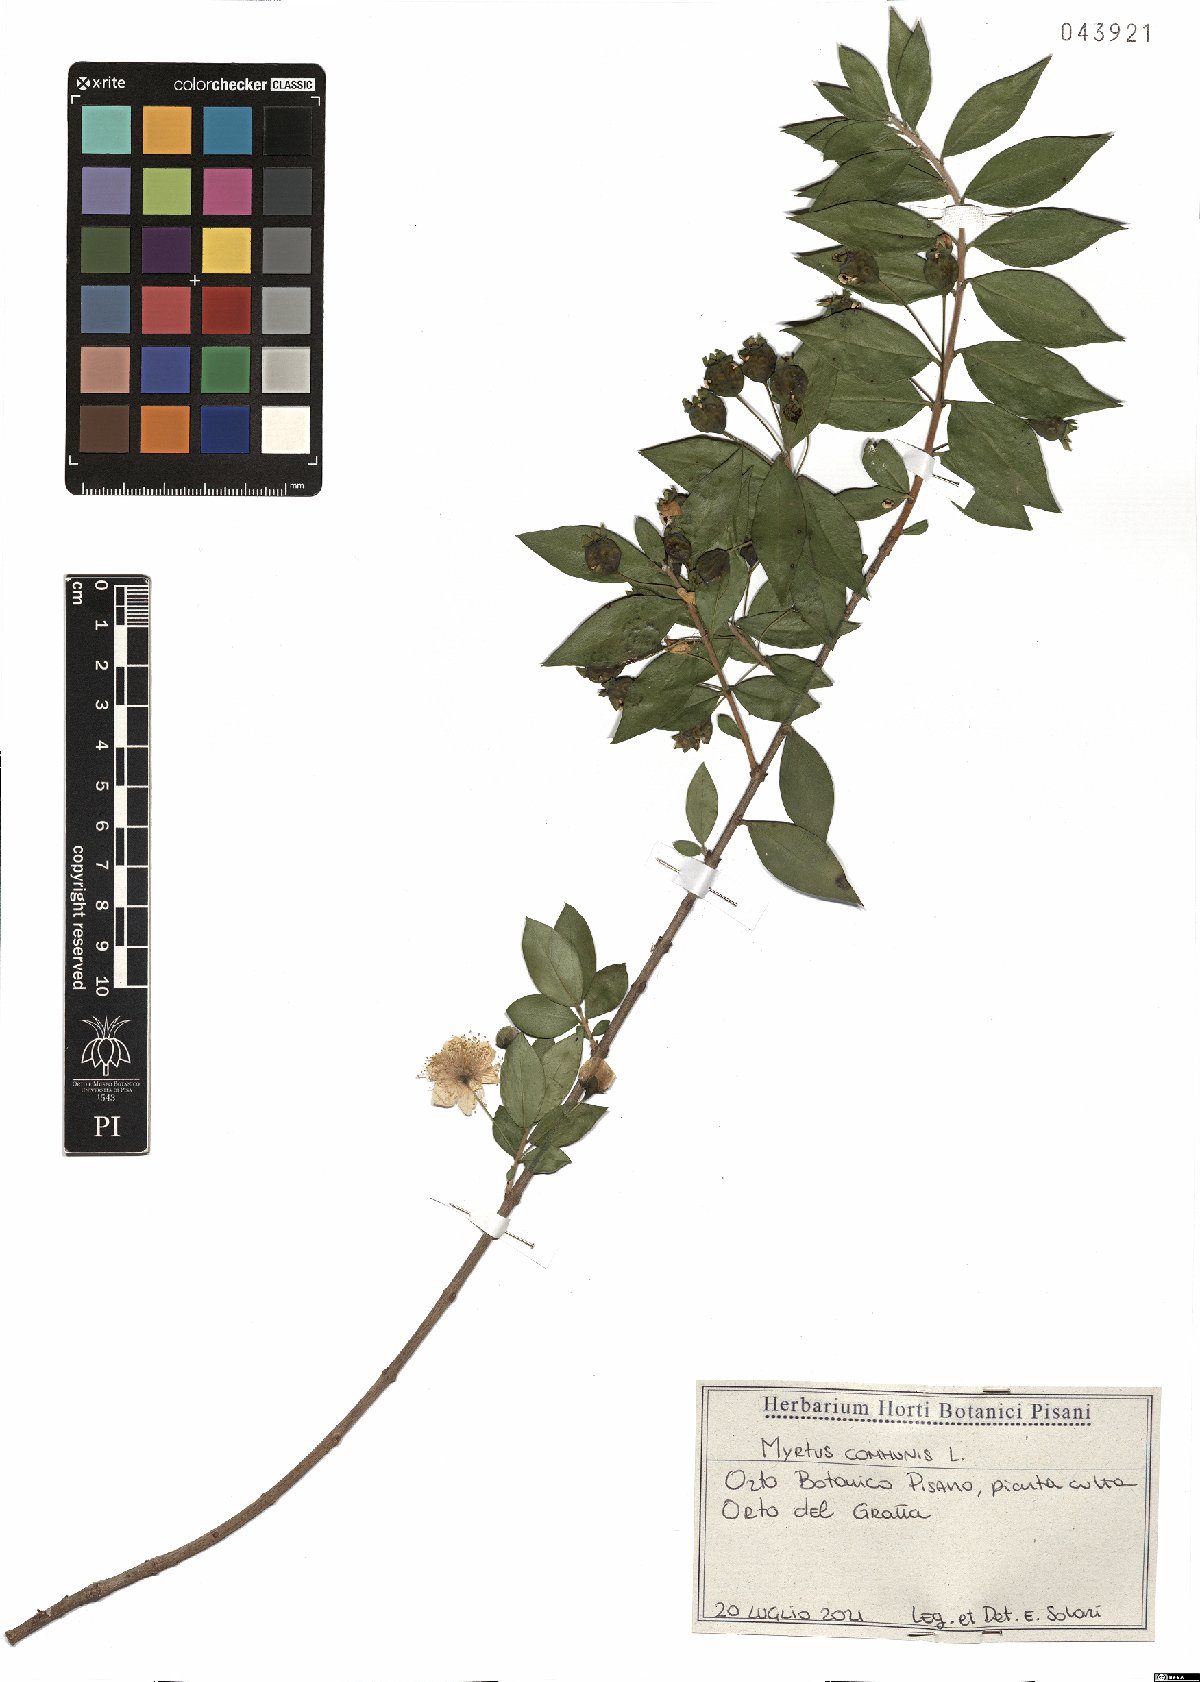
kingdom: Plantae
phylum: Tracheophyta
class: Magnoliopsida
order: Myrtales
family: Myrtaceae
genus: Myrtus
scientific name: Myrtus communis
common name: Myrtle
